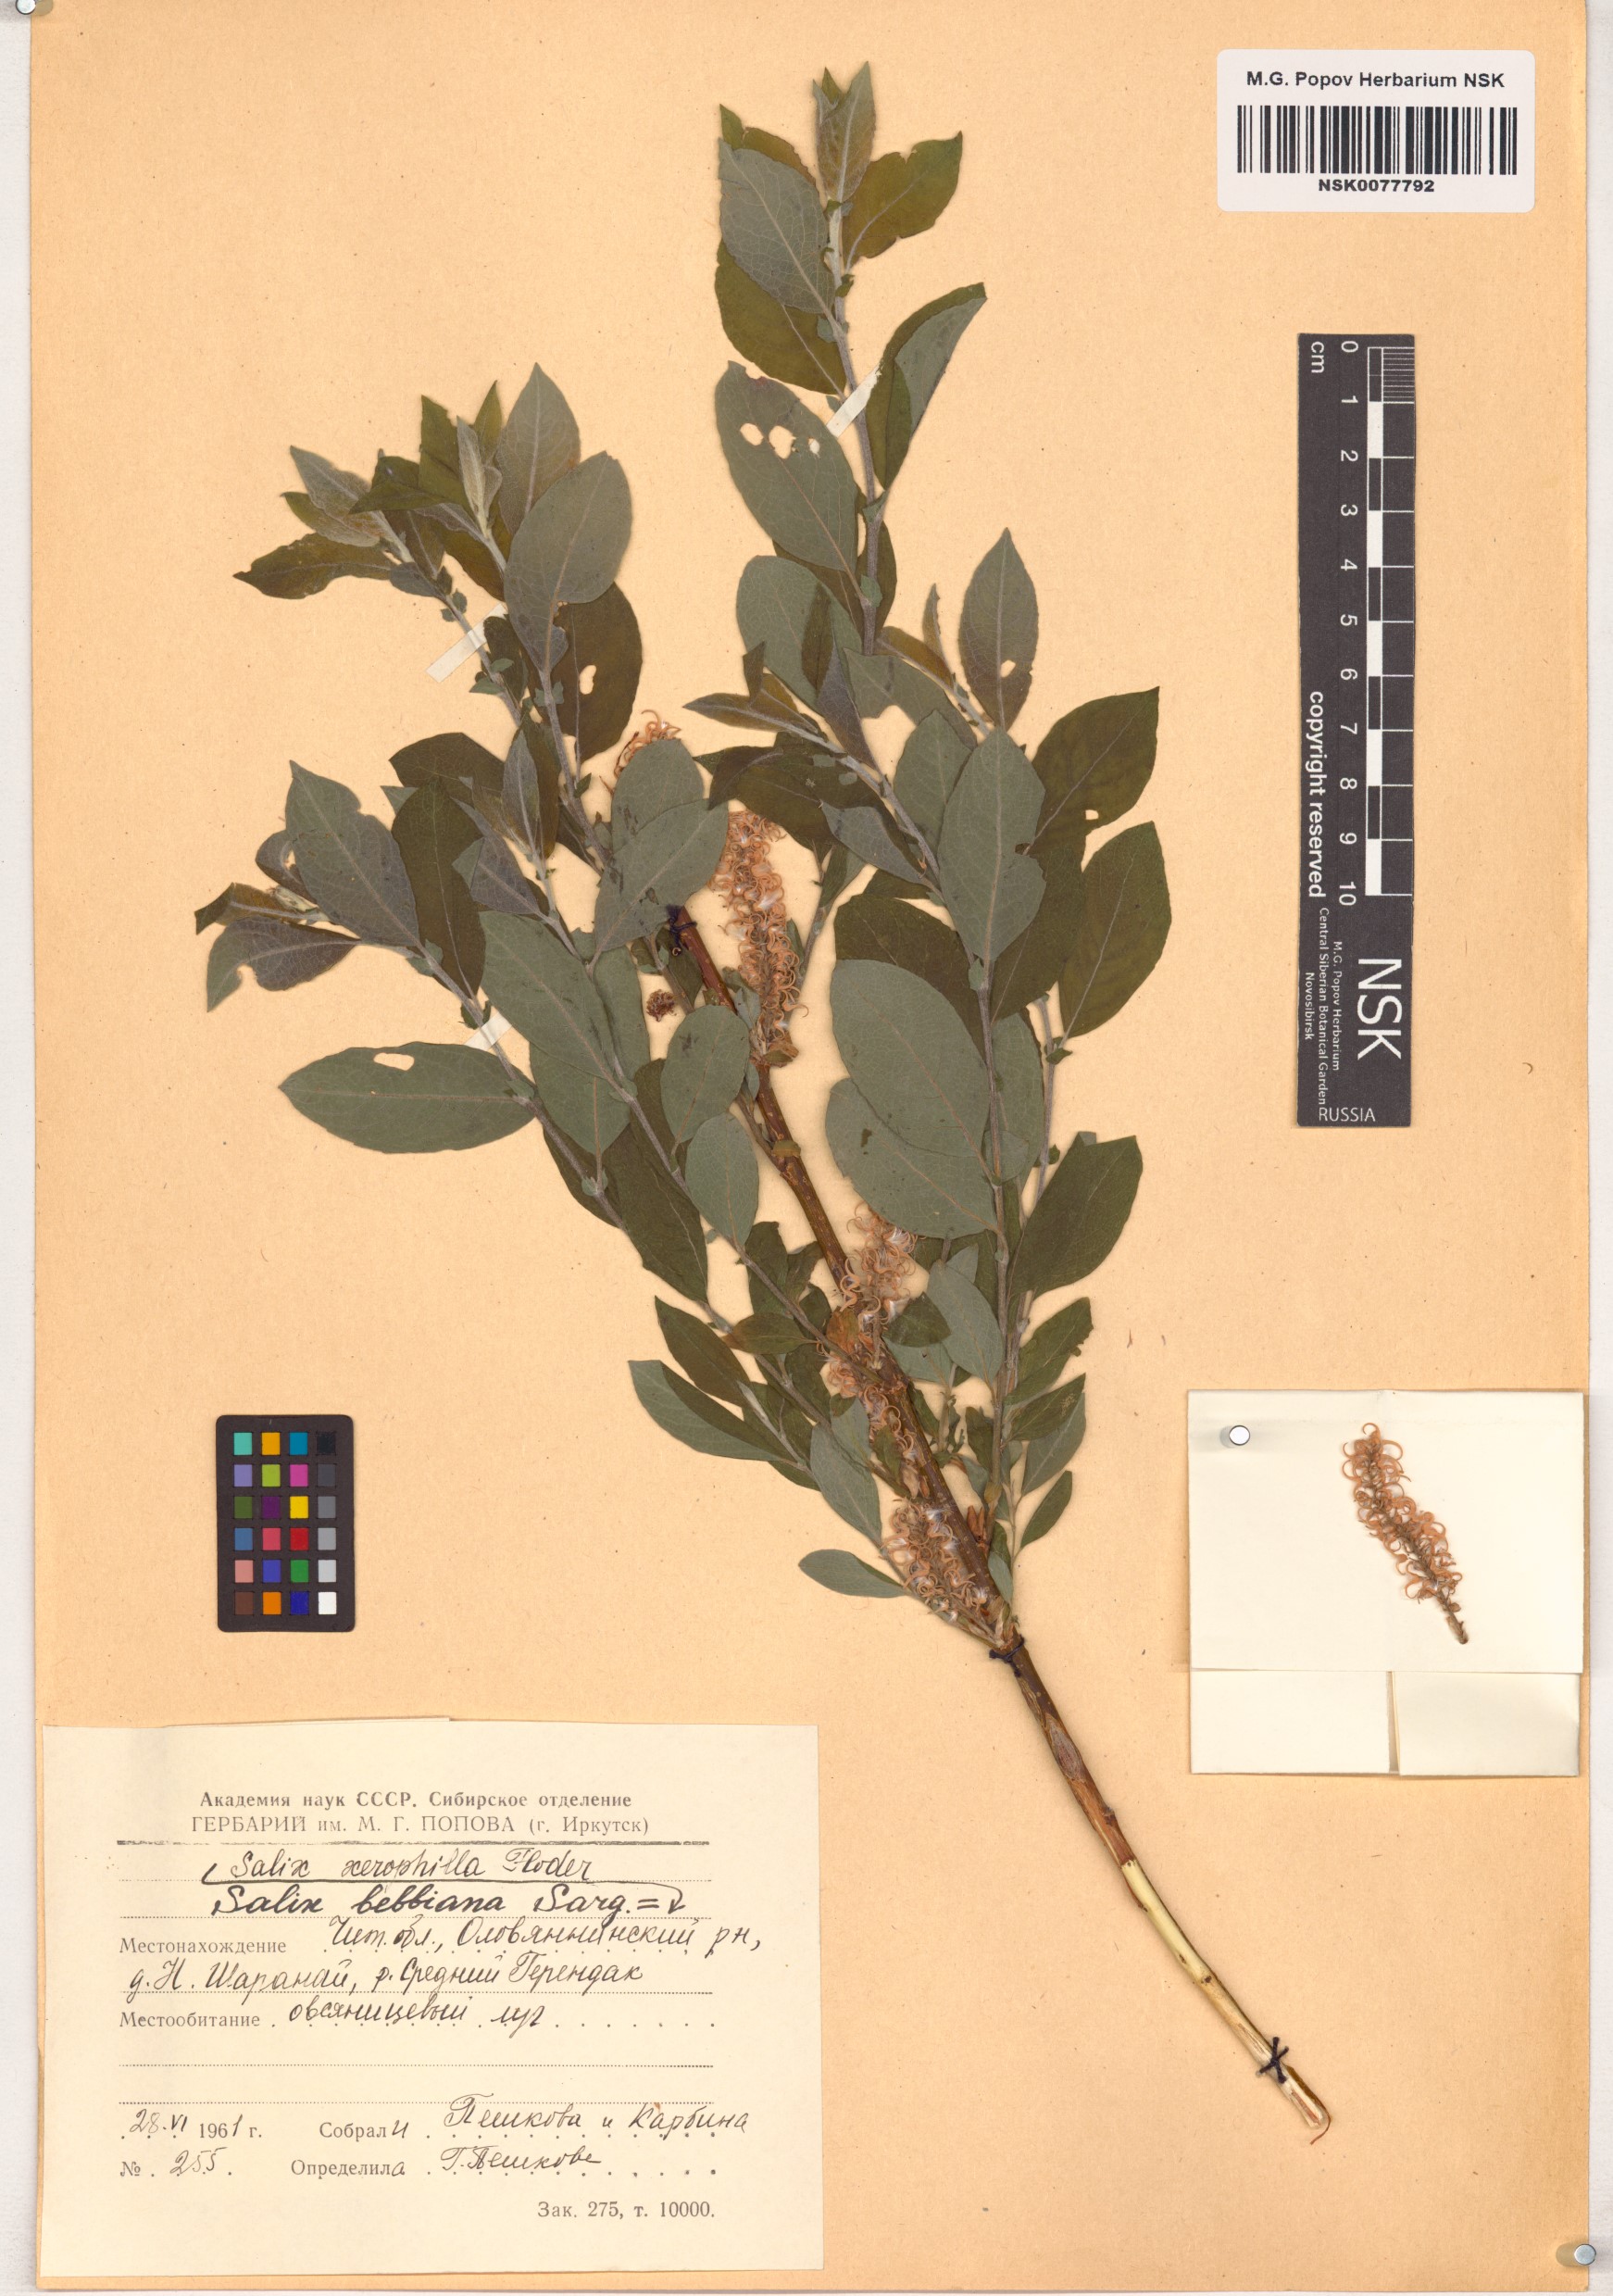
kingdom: Plantae
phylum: Tracheophyta
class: Magnoliopsida
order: Malpighiales
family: Salicaceae
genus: Salix
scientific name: Salix bebbiana
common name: Bebb's willow
